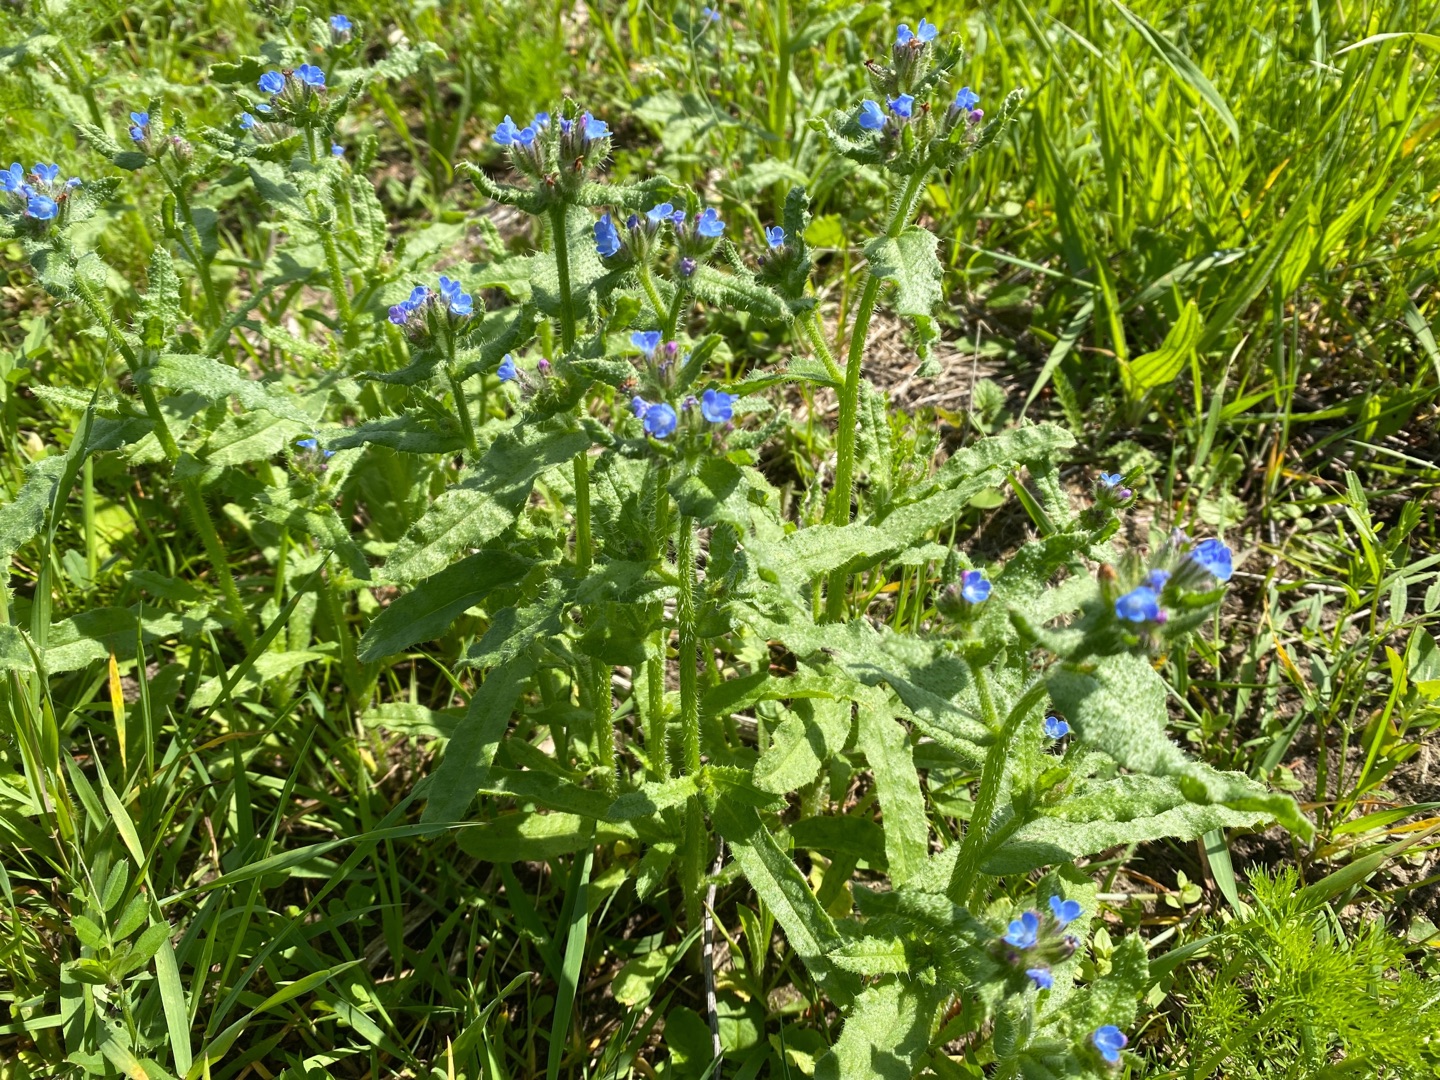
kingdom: Plantae
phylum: Tracheophyta
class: Magnoliopsida
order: Boraginales
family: Boraginaceae
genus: Lycopsis
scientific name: Lycopsis arvensis
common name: Krumhals
